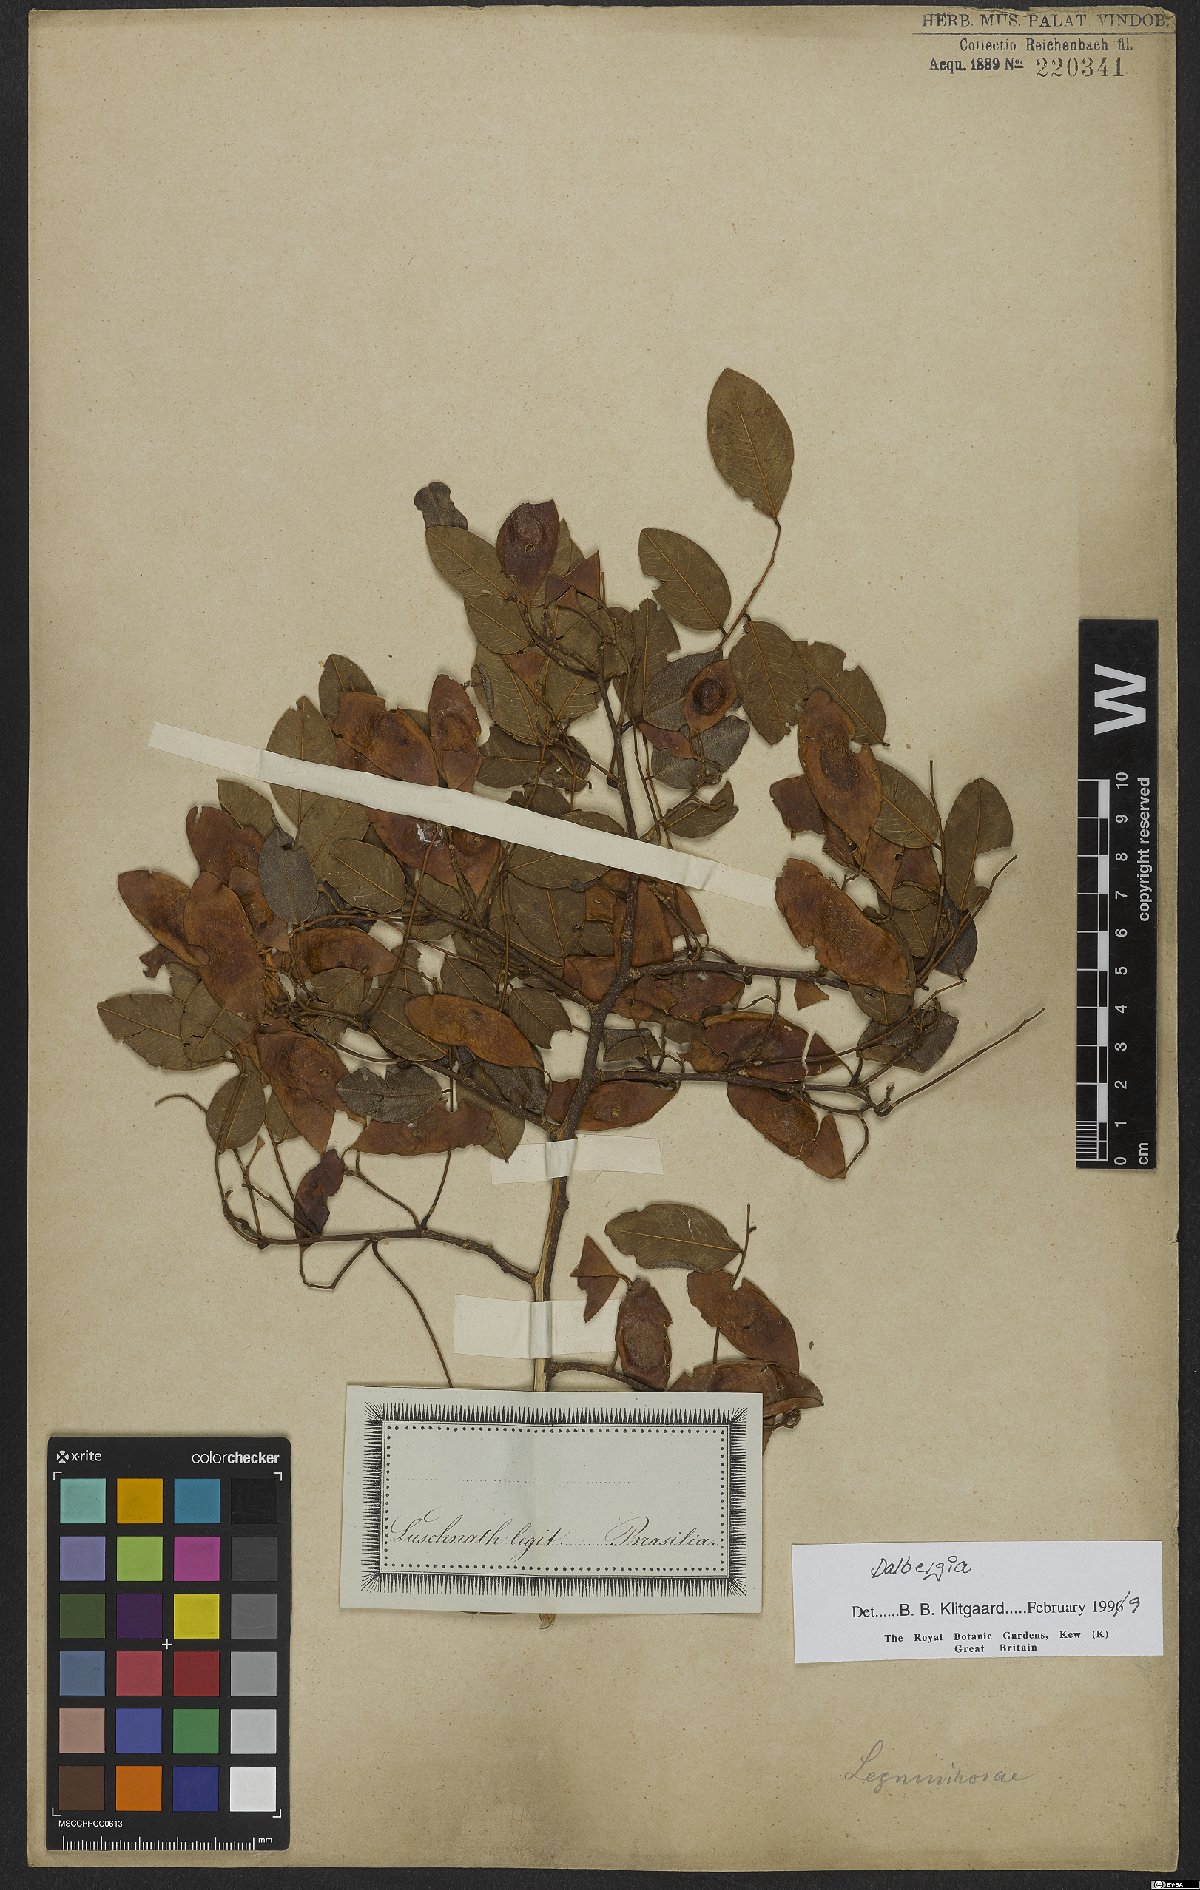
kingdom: Plantae
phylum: Tracheophyta
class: Magnoliopsida
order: Fabales
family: Fabaceae
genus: Dalbergia
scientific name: Dalbergia
